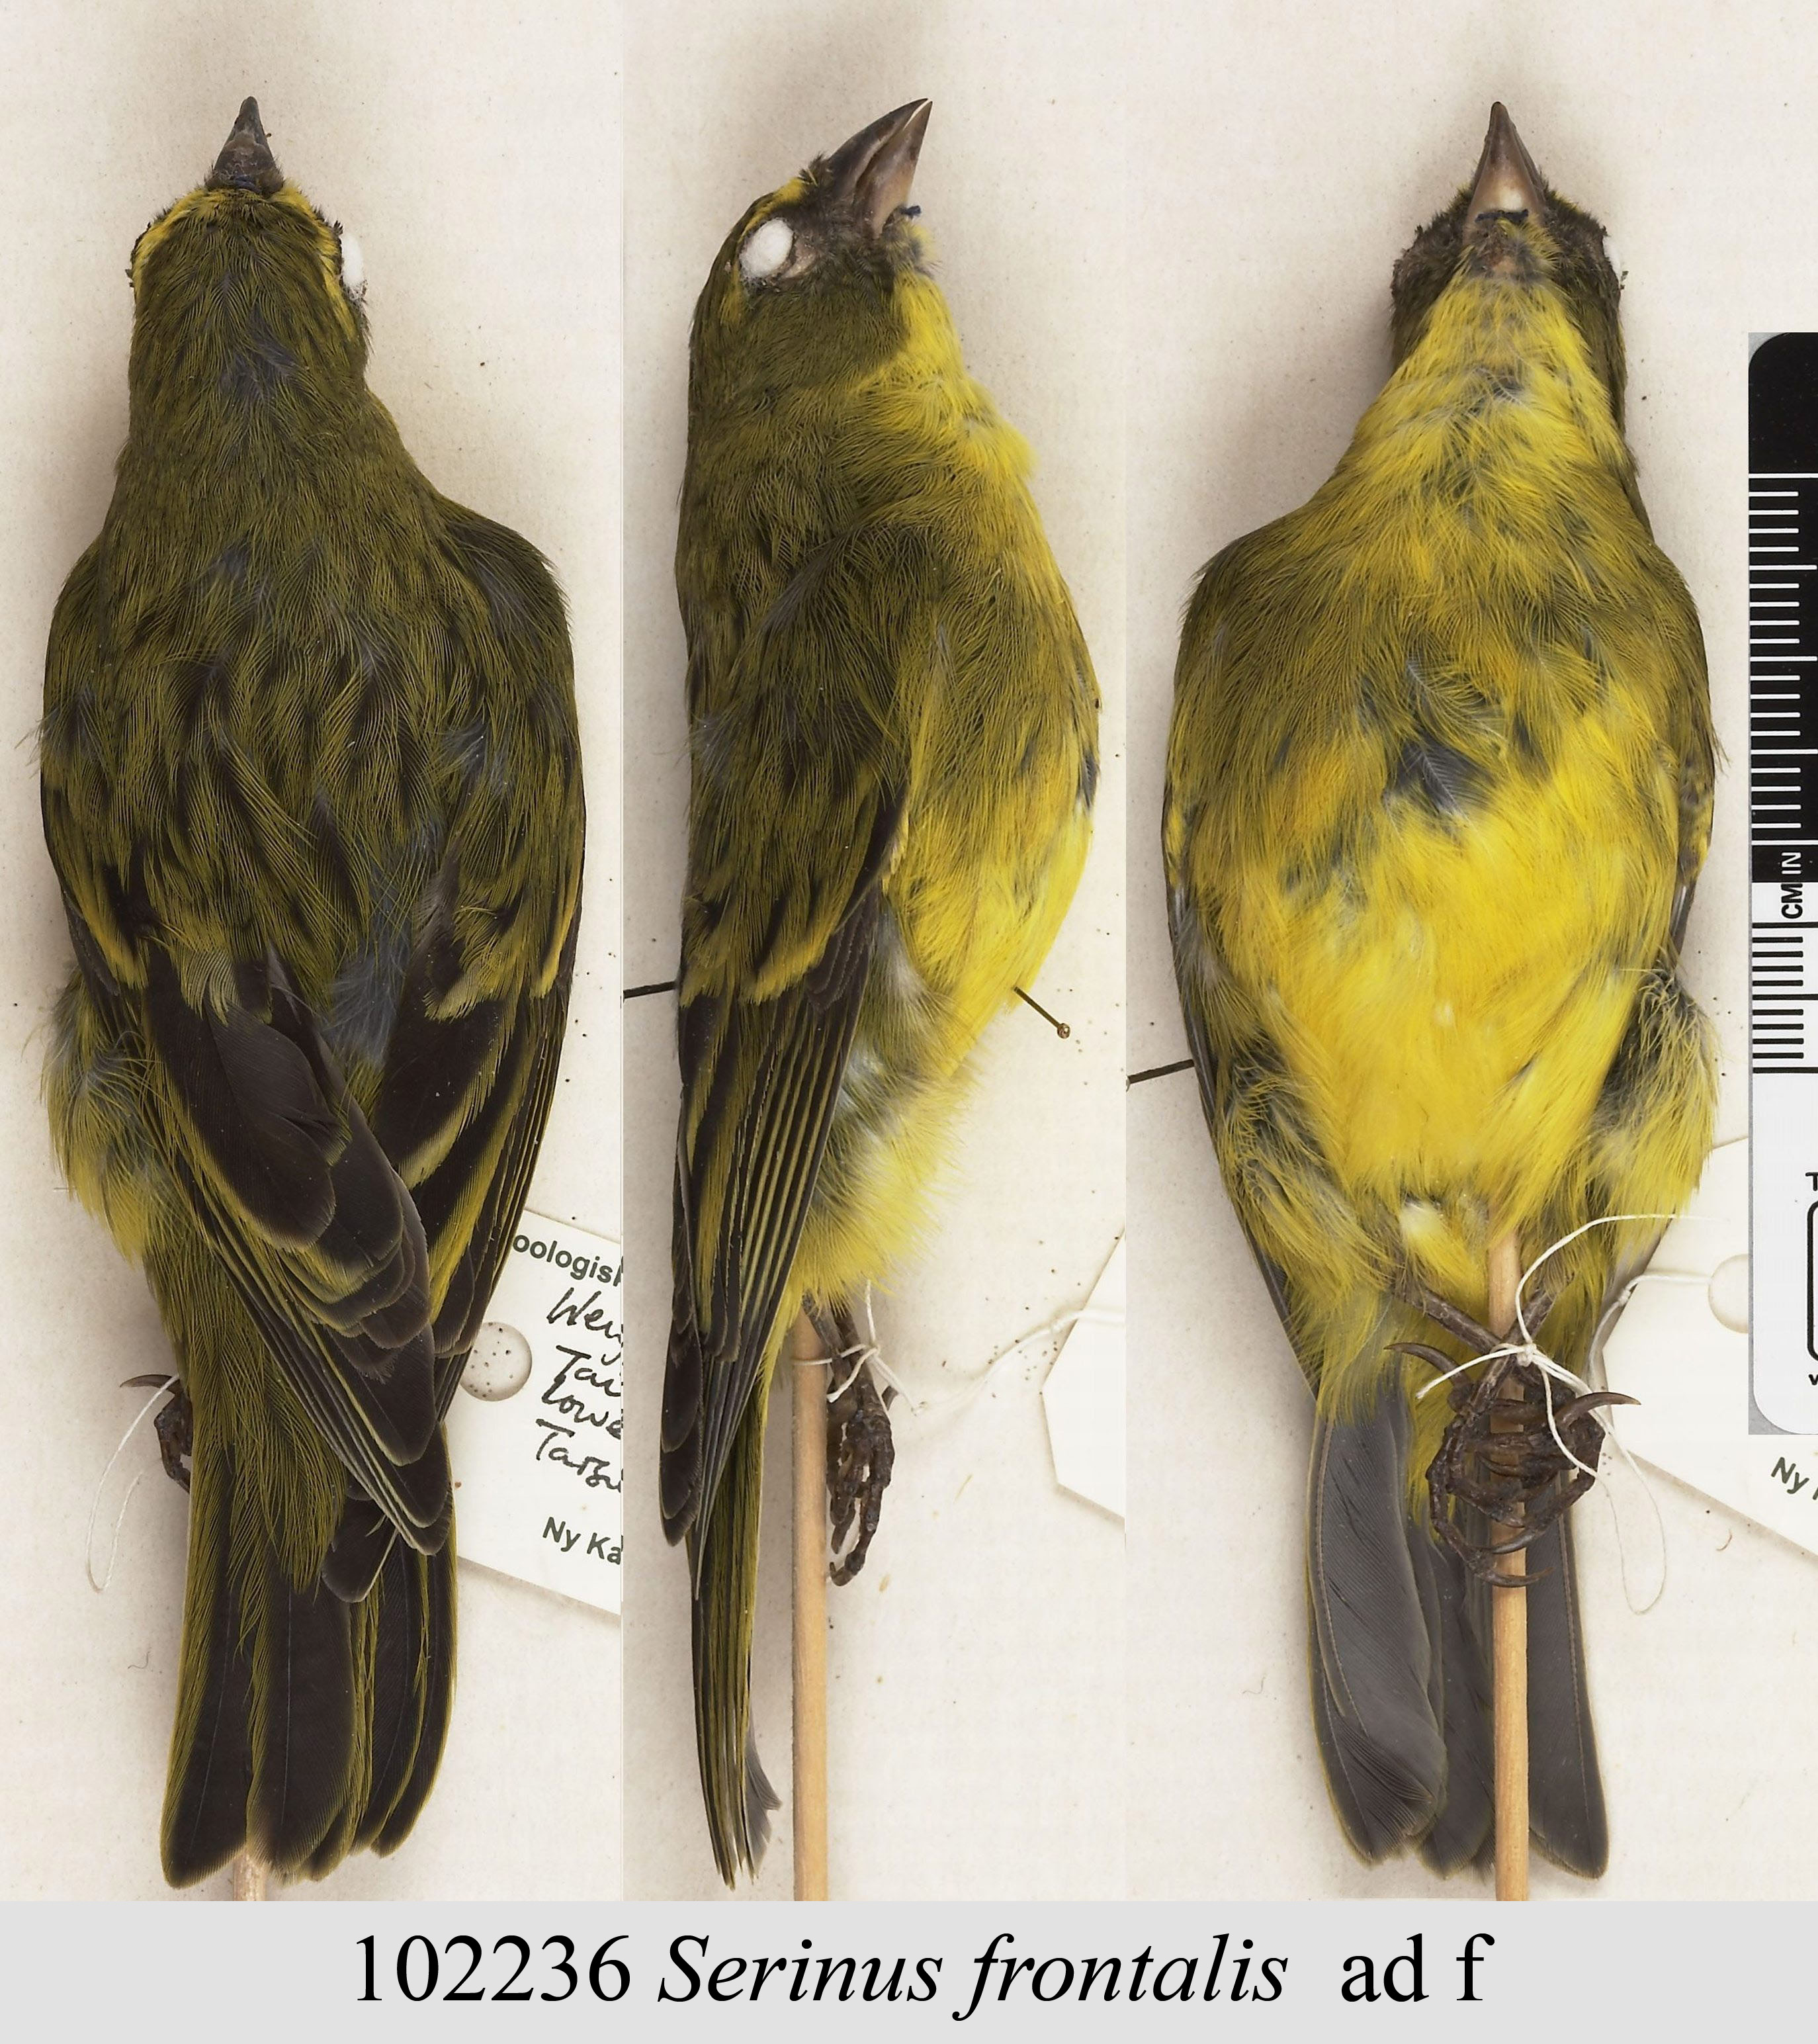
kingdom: Animalia
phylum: Chordata
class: Aves
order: Passeriformes
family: Fringillidae
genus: Crithagra
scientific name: Crithagra frontalis
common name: Western citril
